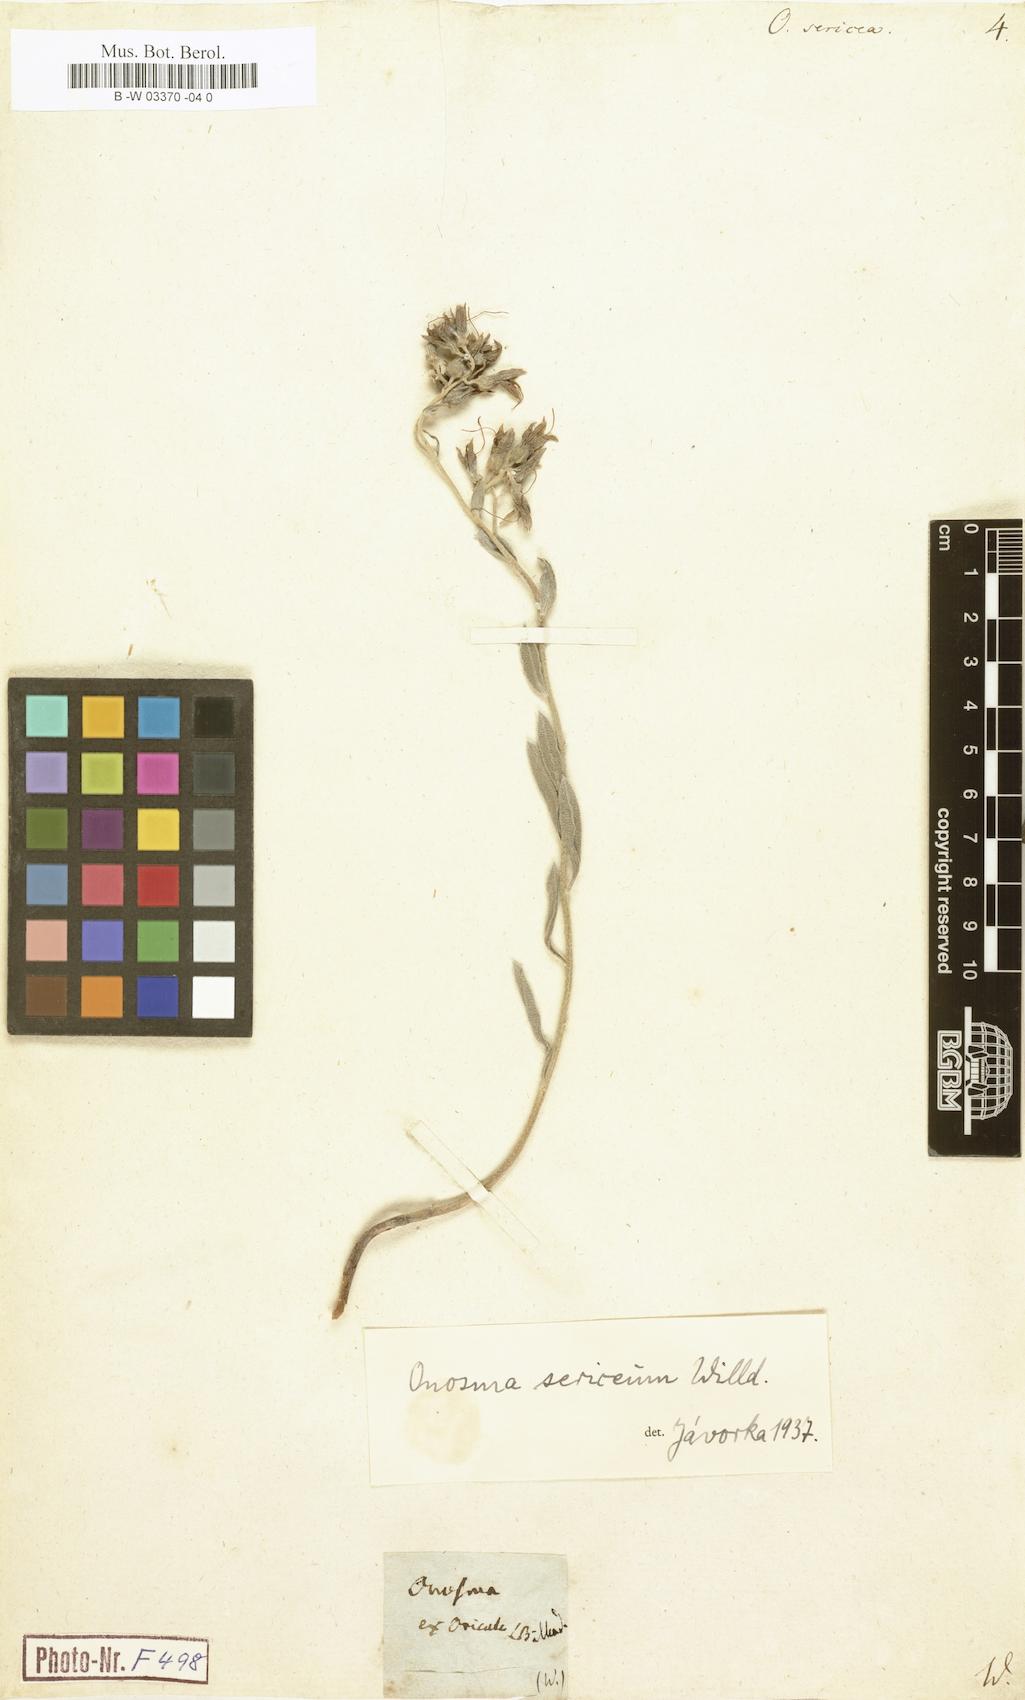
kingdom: Plantae
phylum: Tracheophyta
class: Magnoliopsida
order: Boraginales
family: Boraginaceae
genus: Onosma
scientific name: Onosma sericea
